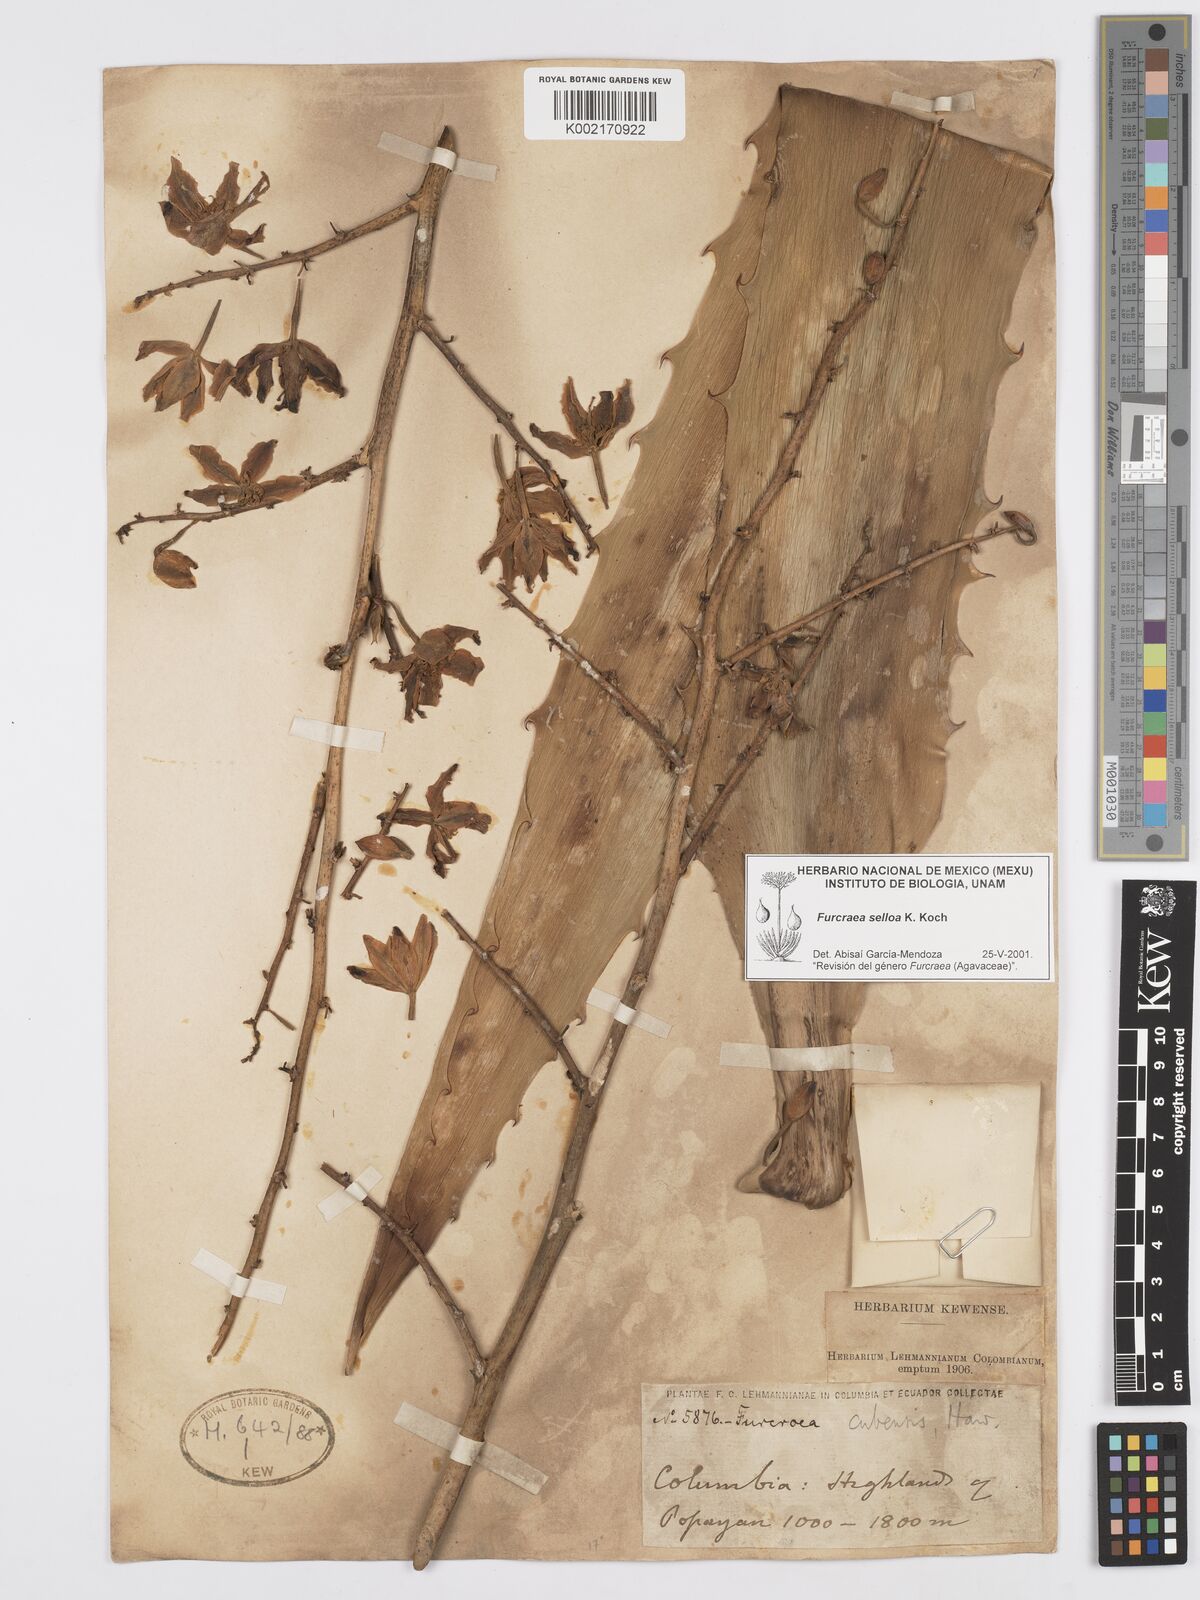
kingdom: Plantae
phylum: Tracheophyta
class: Liliopsida
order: Asparagales
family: Asparagaceae
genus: Furcraea
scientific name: Furcraea selloana
